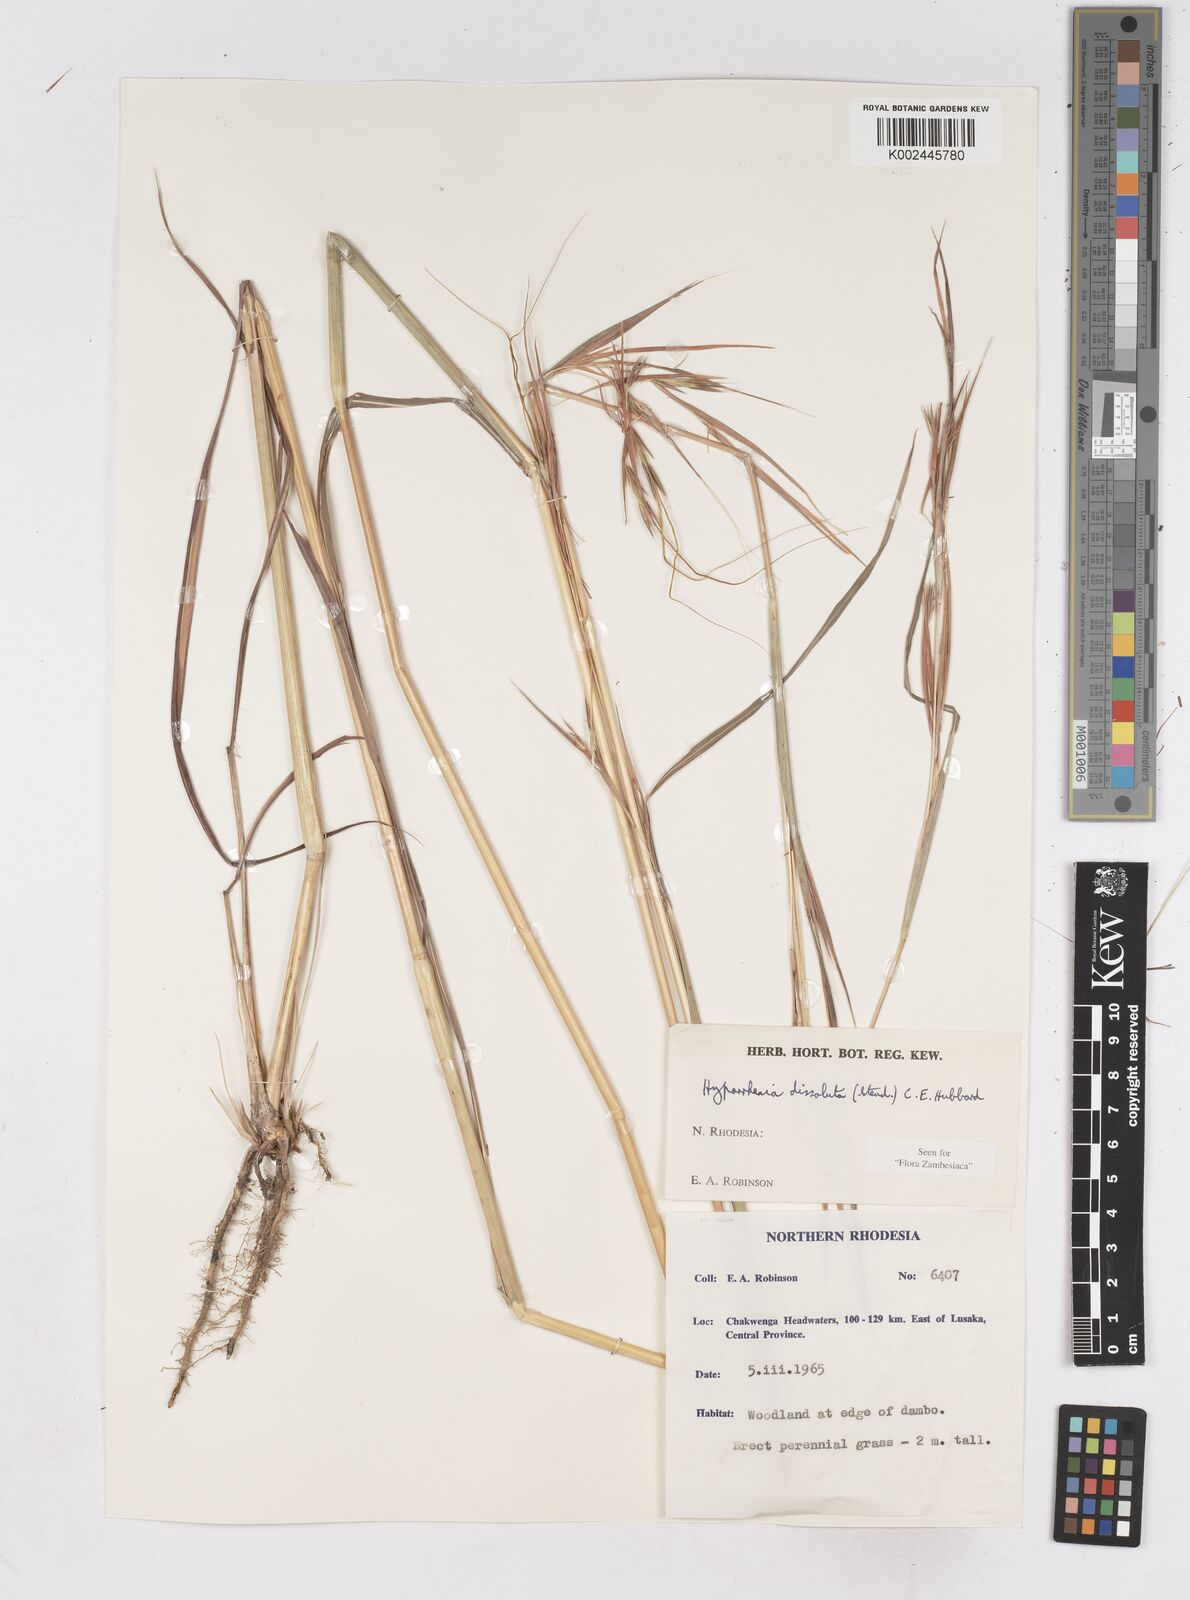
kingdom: Plantae
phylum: Tracheophyta
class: Liliopsida
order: Poales
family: Poaceae
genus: Hyperthelia
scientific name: Hyperthelia dissoluta
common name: Yellow thatching grass
